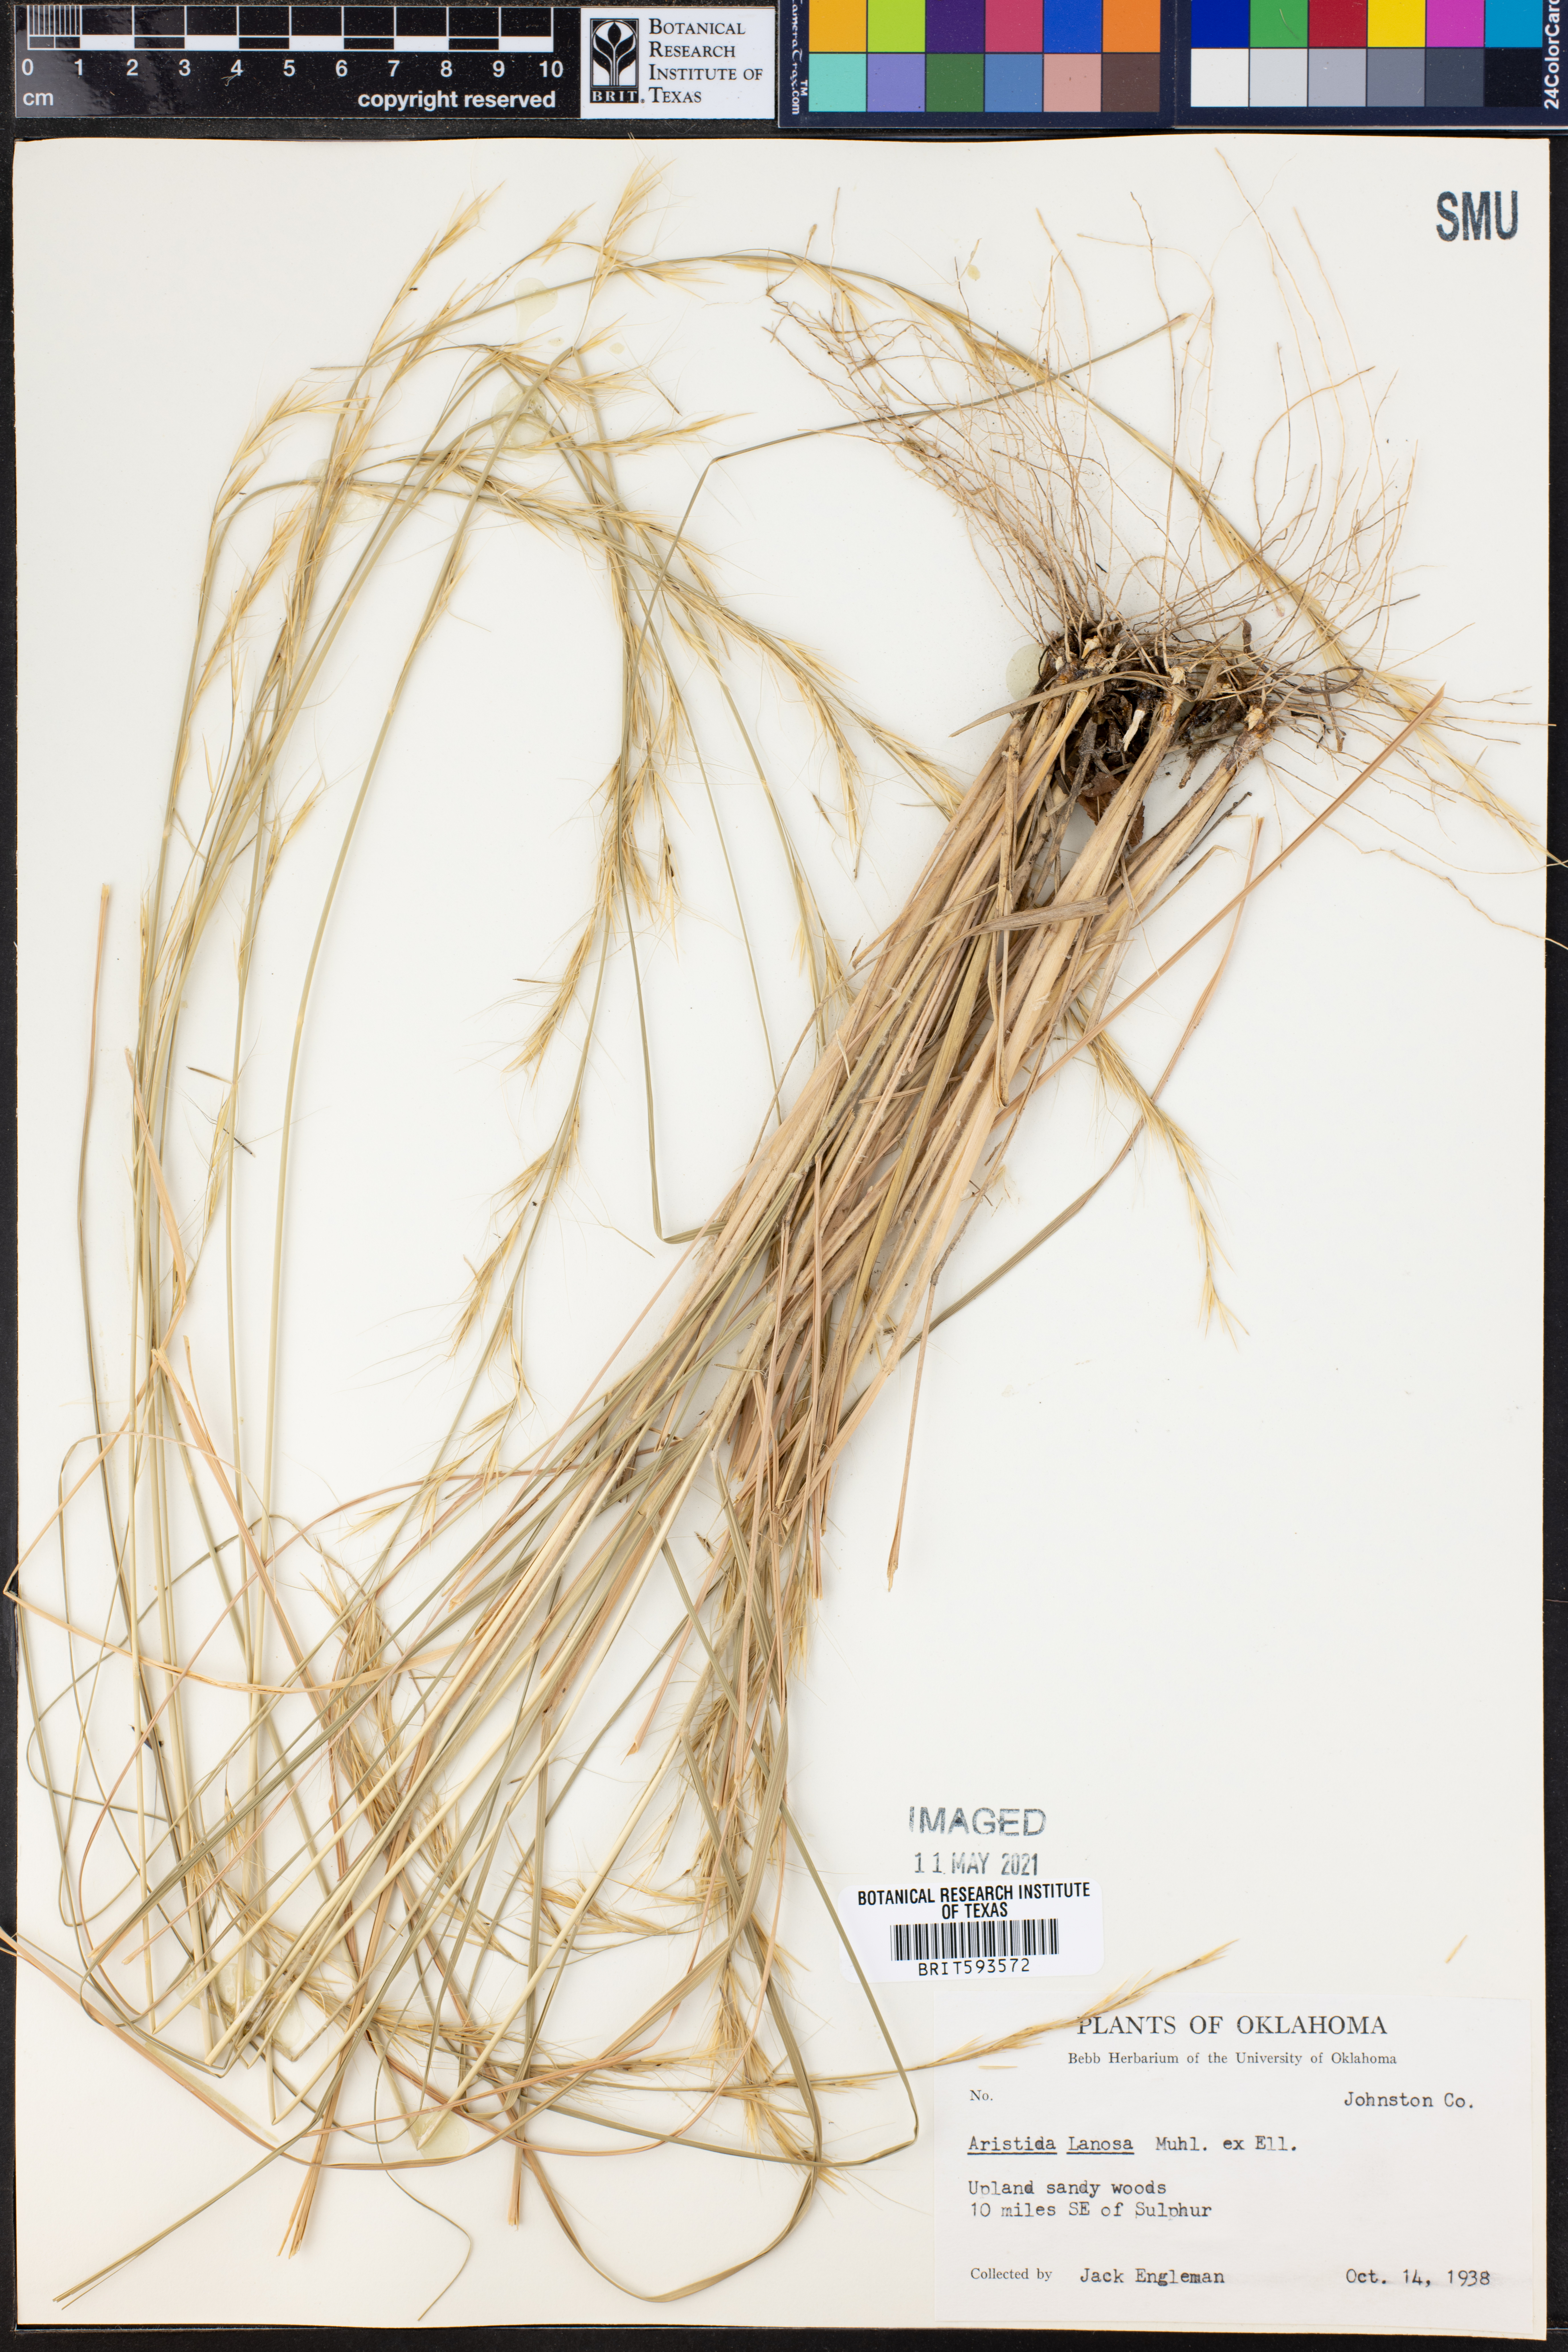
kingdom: Plantae
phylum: Tracheophyta
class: Liliopsida
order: Poales
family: Poaceae
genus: Aristida
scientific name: Aristida lanosa
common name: Woolly three-awn
